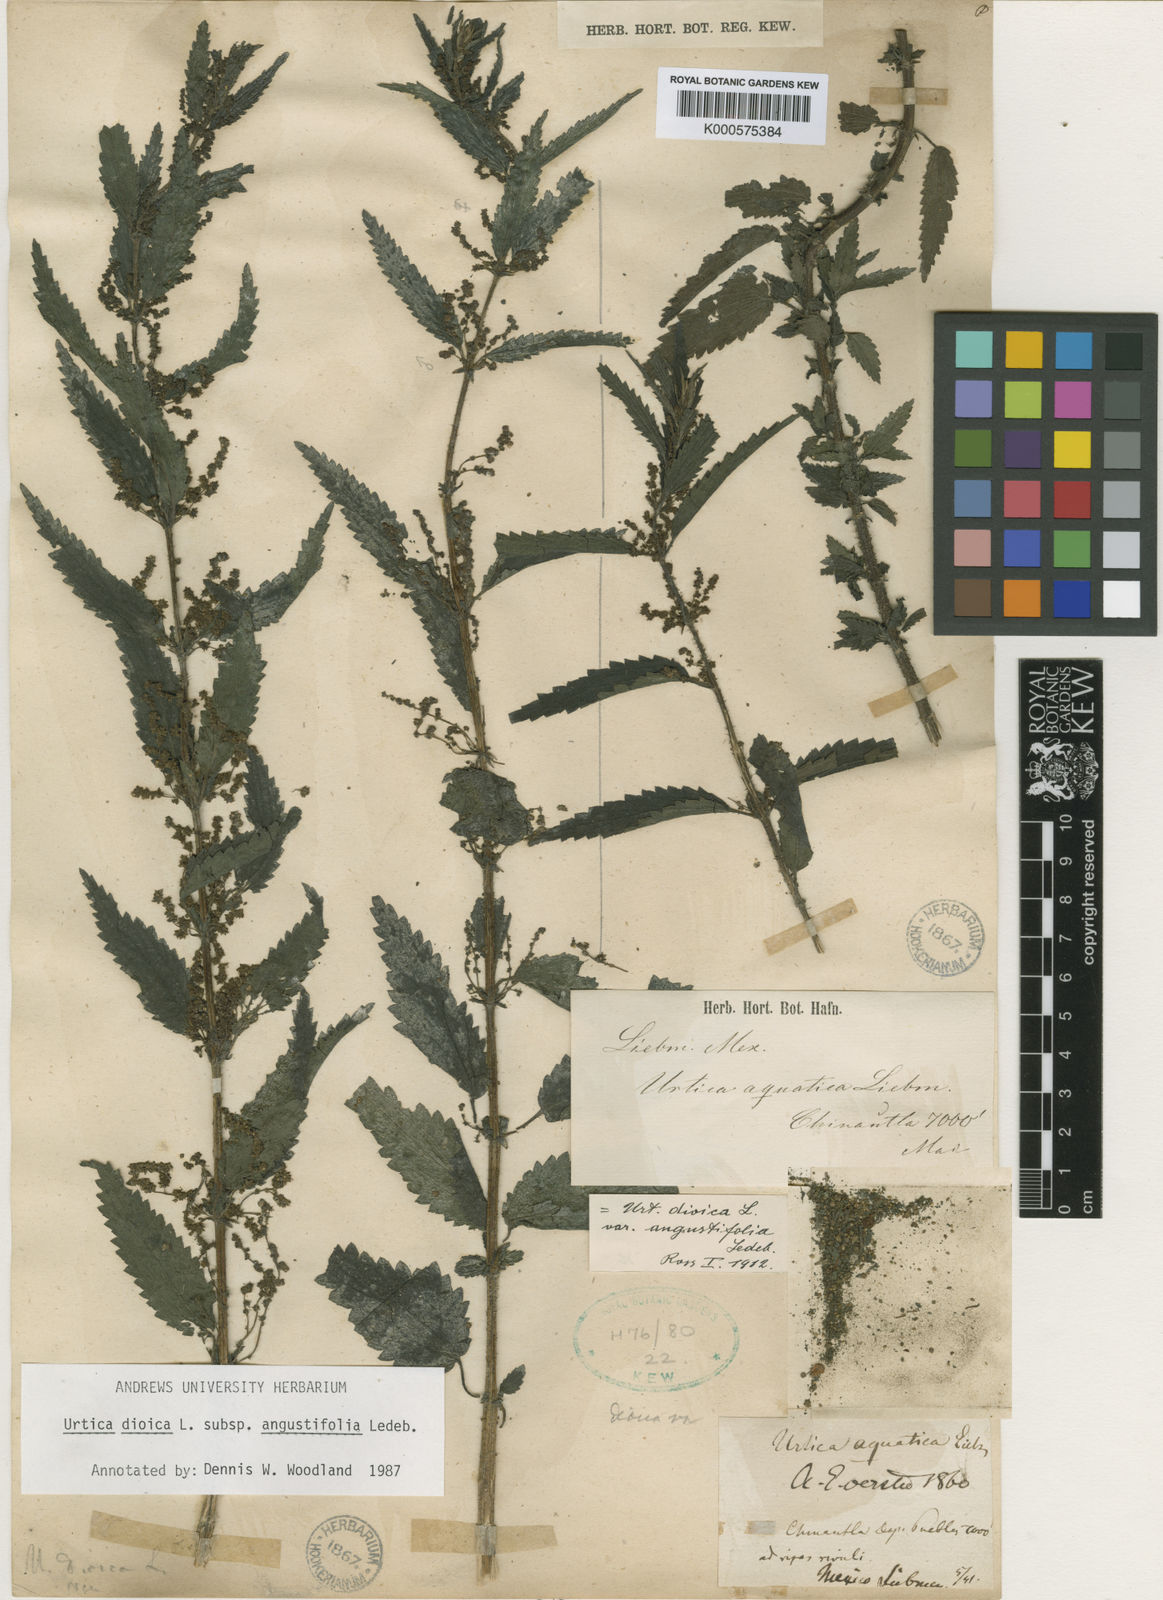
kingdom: Plantae
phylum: Tracheophyta
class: Magnoliopsida
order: Rosales
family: Urticaceae
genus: Urtica
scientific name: Urtica dioica
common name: Common nettle
